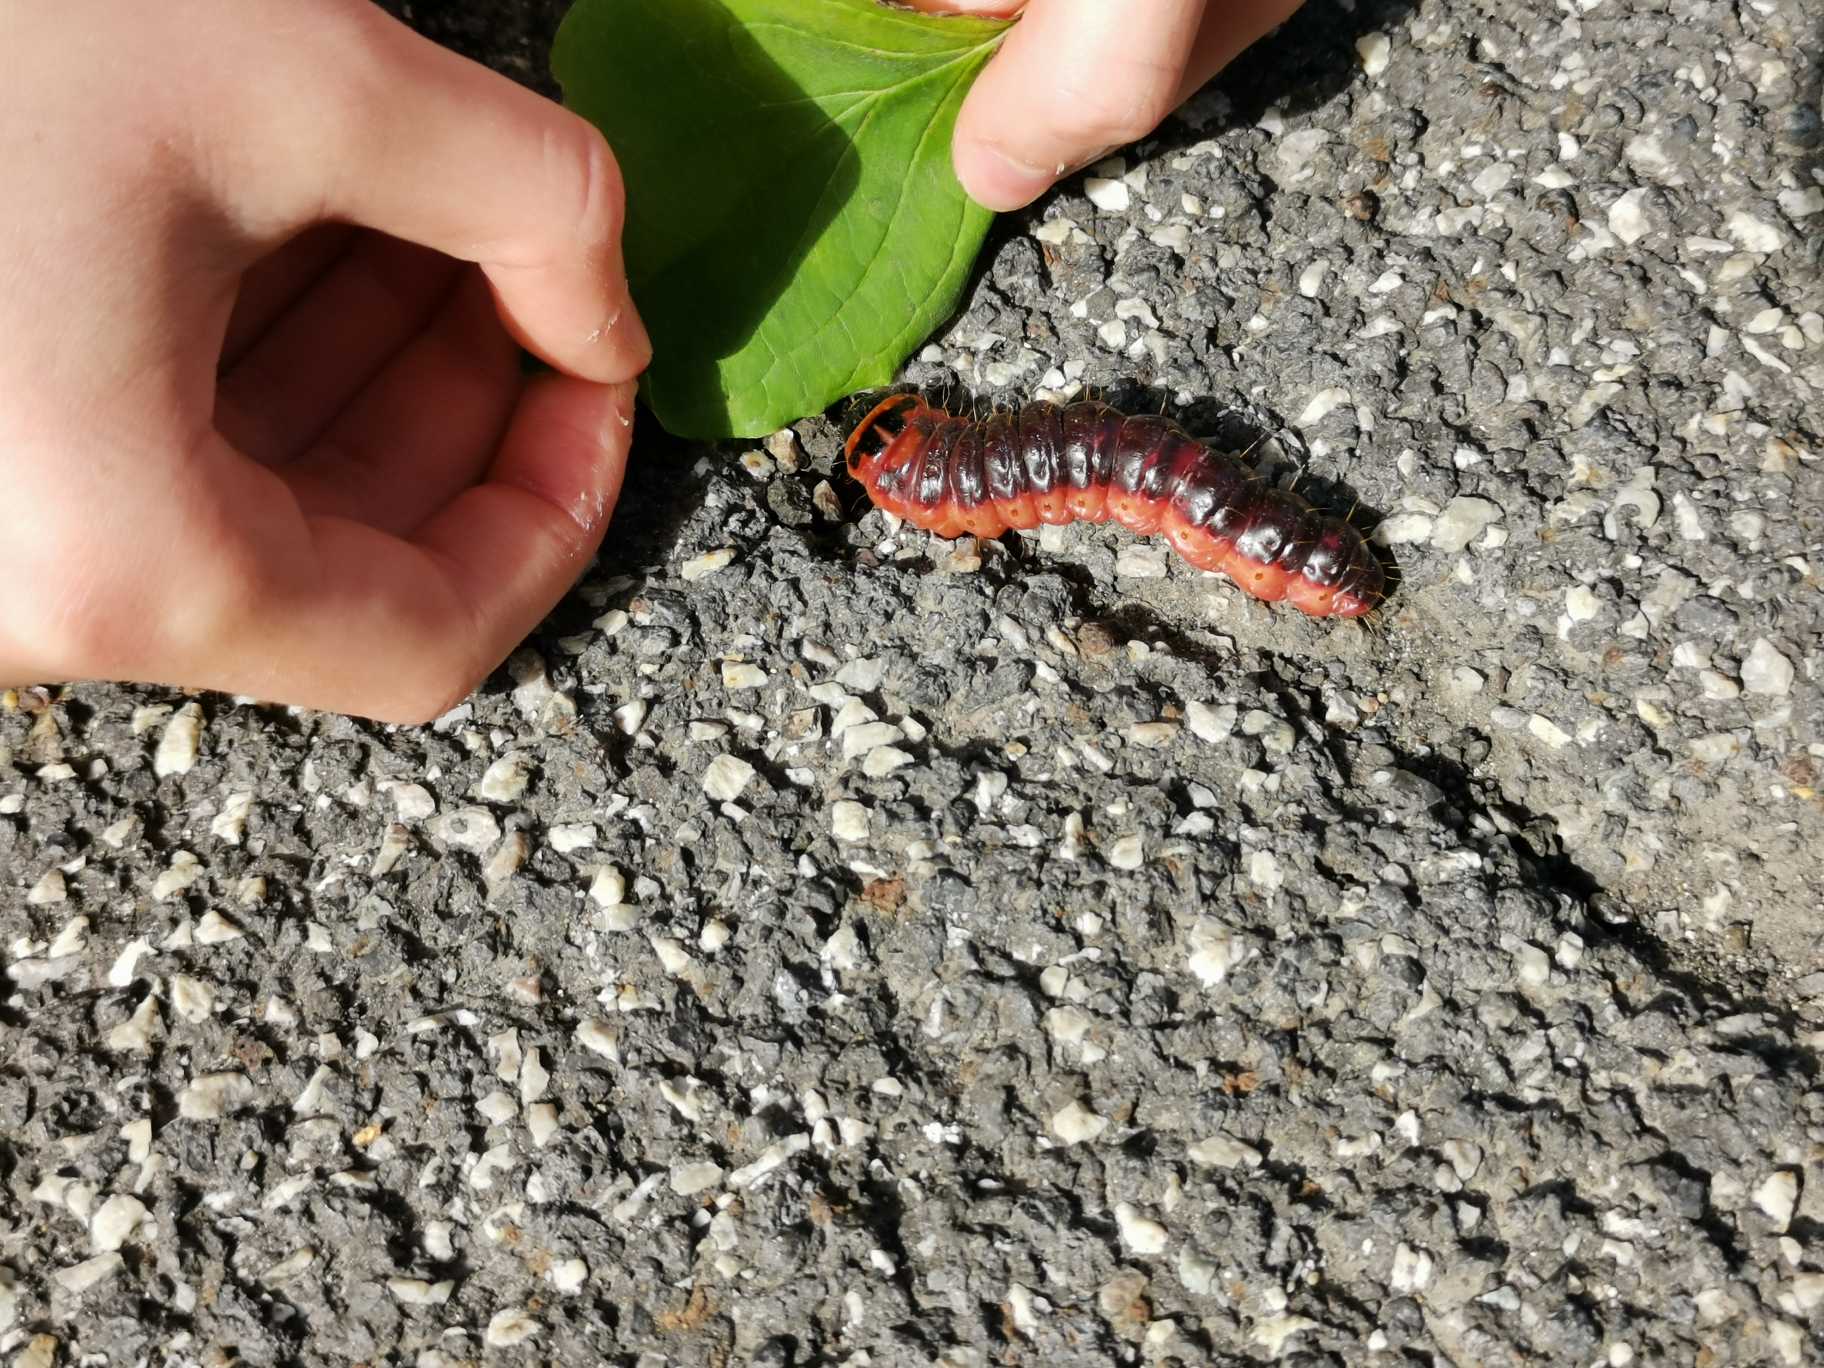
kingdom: Animalia
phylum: Arthropoda
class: Insecta
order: Lepidoptera
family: Cossidae
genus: Cossus
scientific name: Cossus cossus
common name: Pileborer
